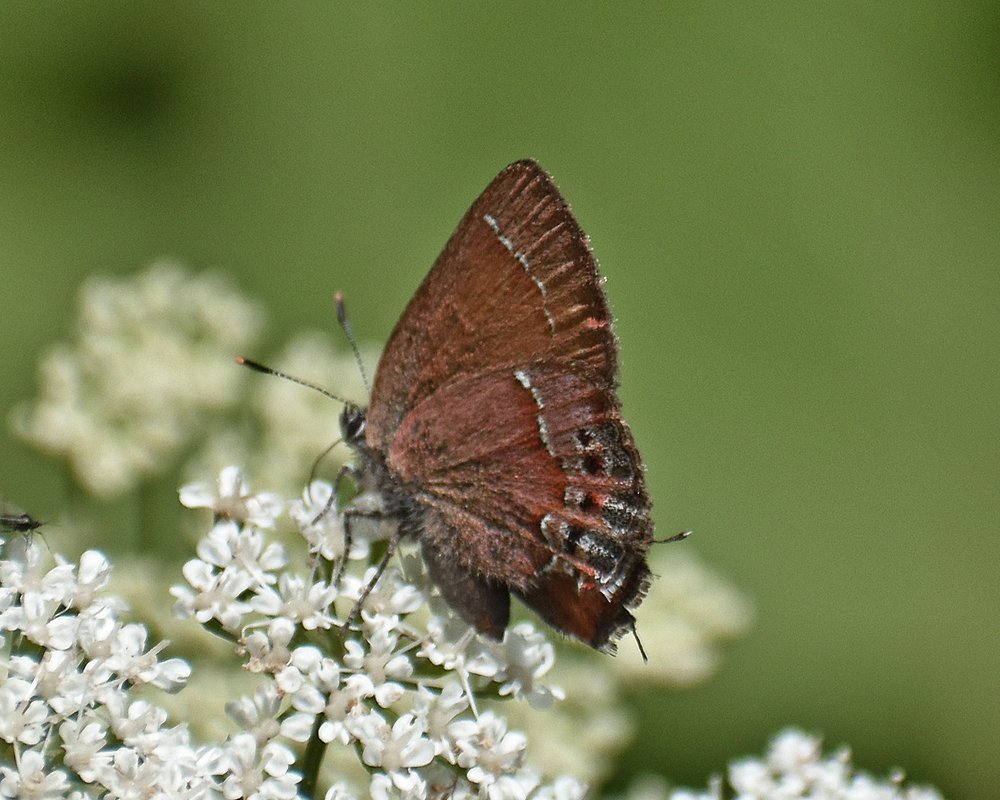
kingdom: Animalia
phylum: Arthropoda
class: Insecta
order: Lepidoptera
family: Lycaenidae
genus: Mitoura
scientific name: Mitoura nelsoni
